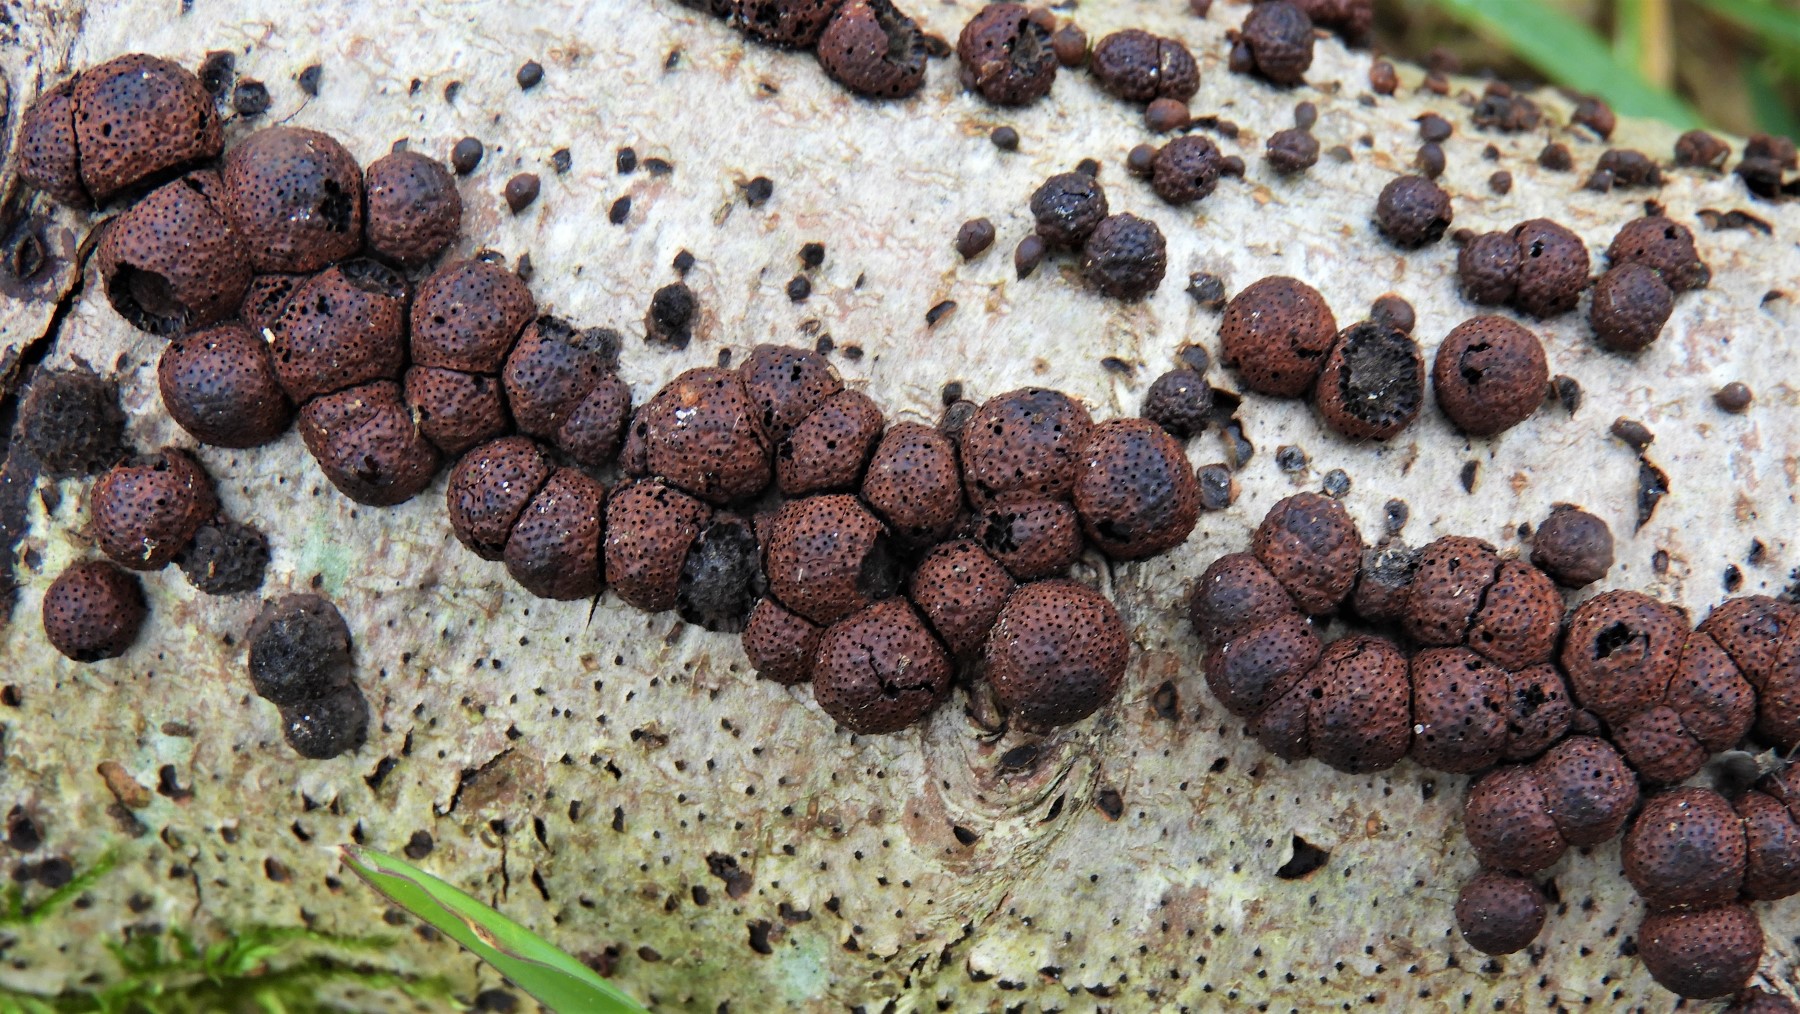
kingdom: Fungi
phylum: Ascomycota
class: Sordariomycetes
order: Xylariales
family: Hypoxylaceae
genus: Hypoxylon
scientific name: Hypoxylon fragiforme
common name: kuljordbær
